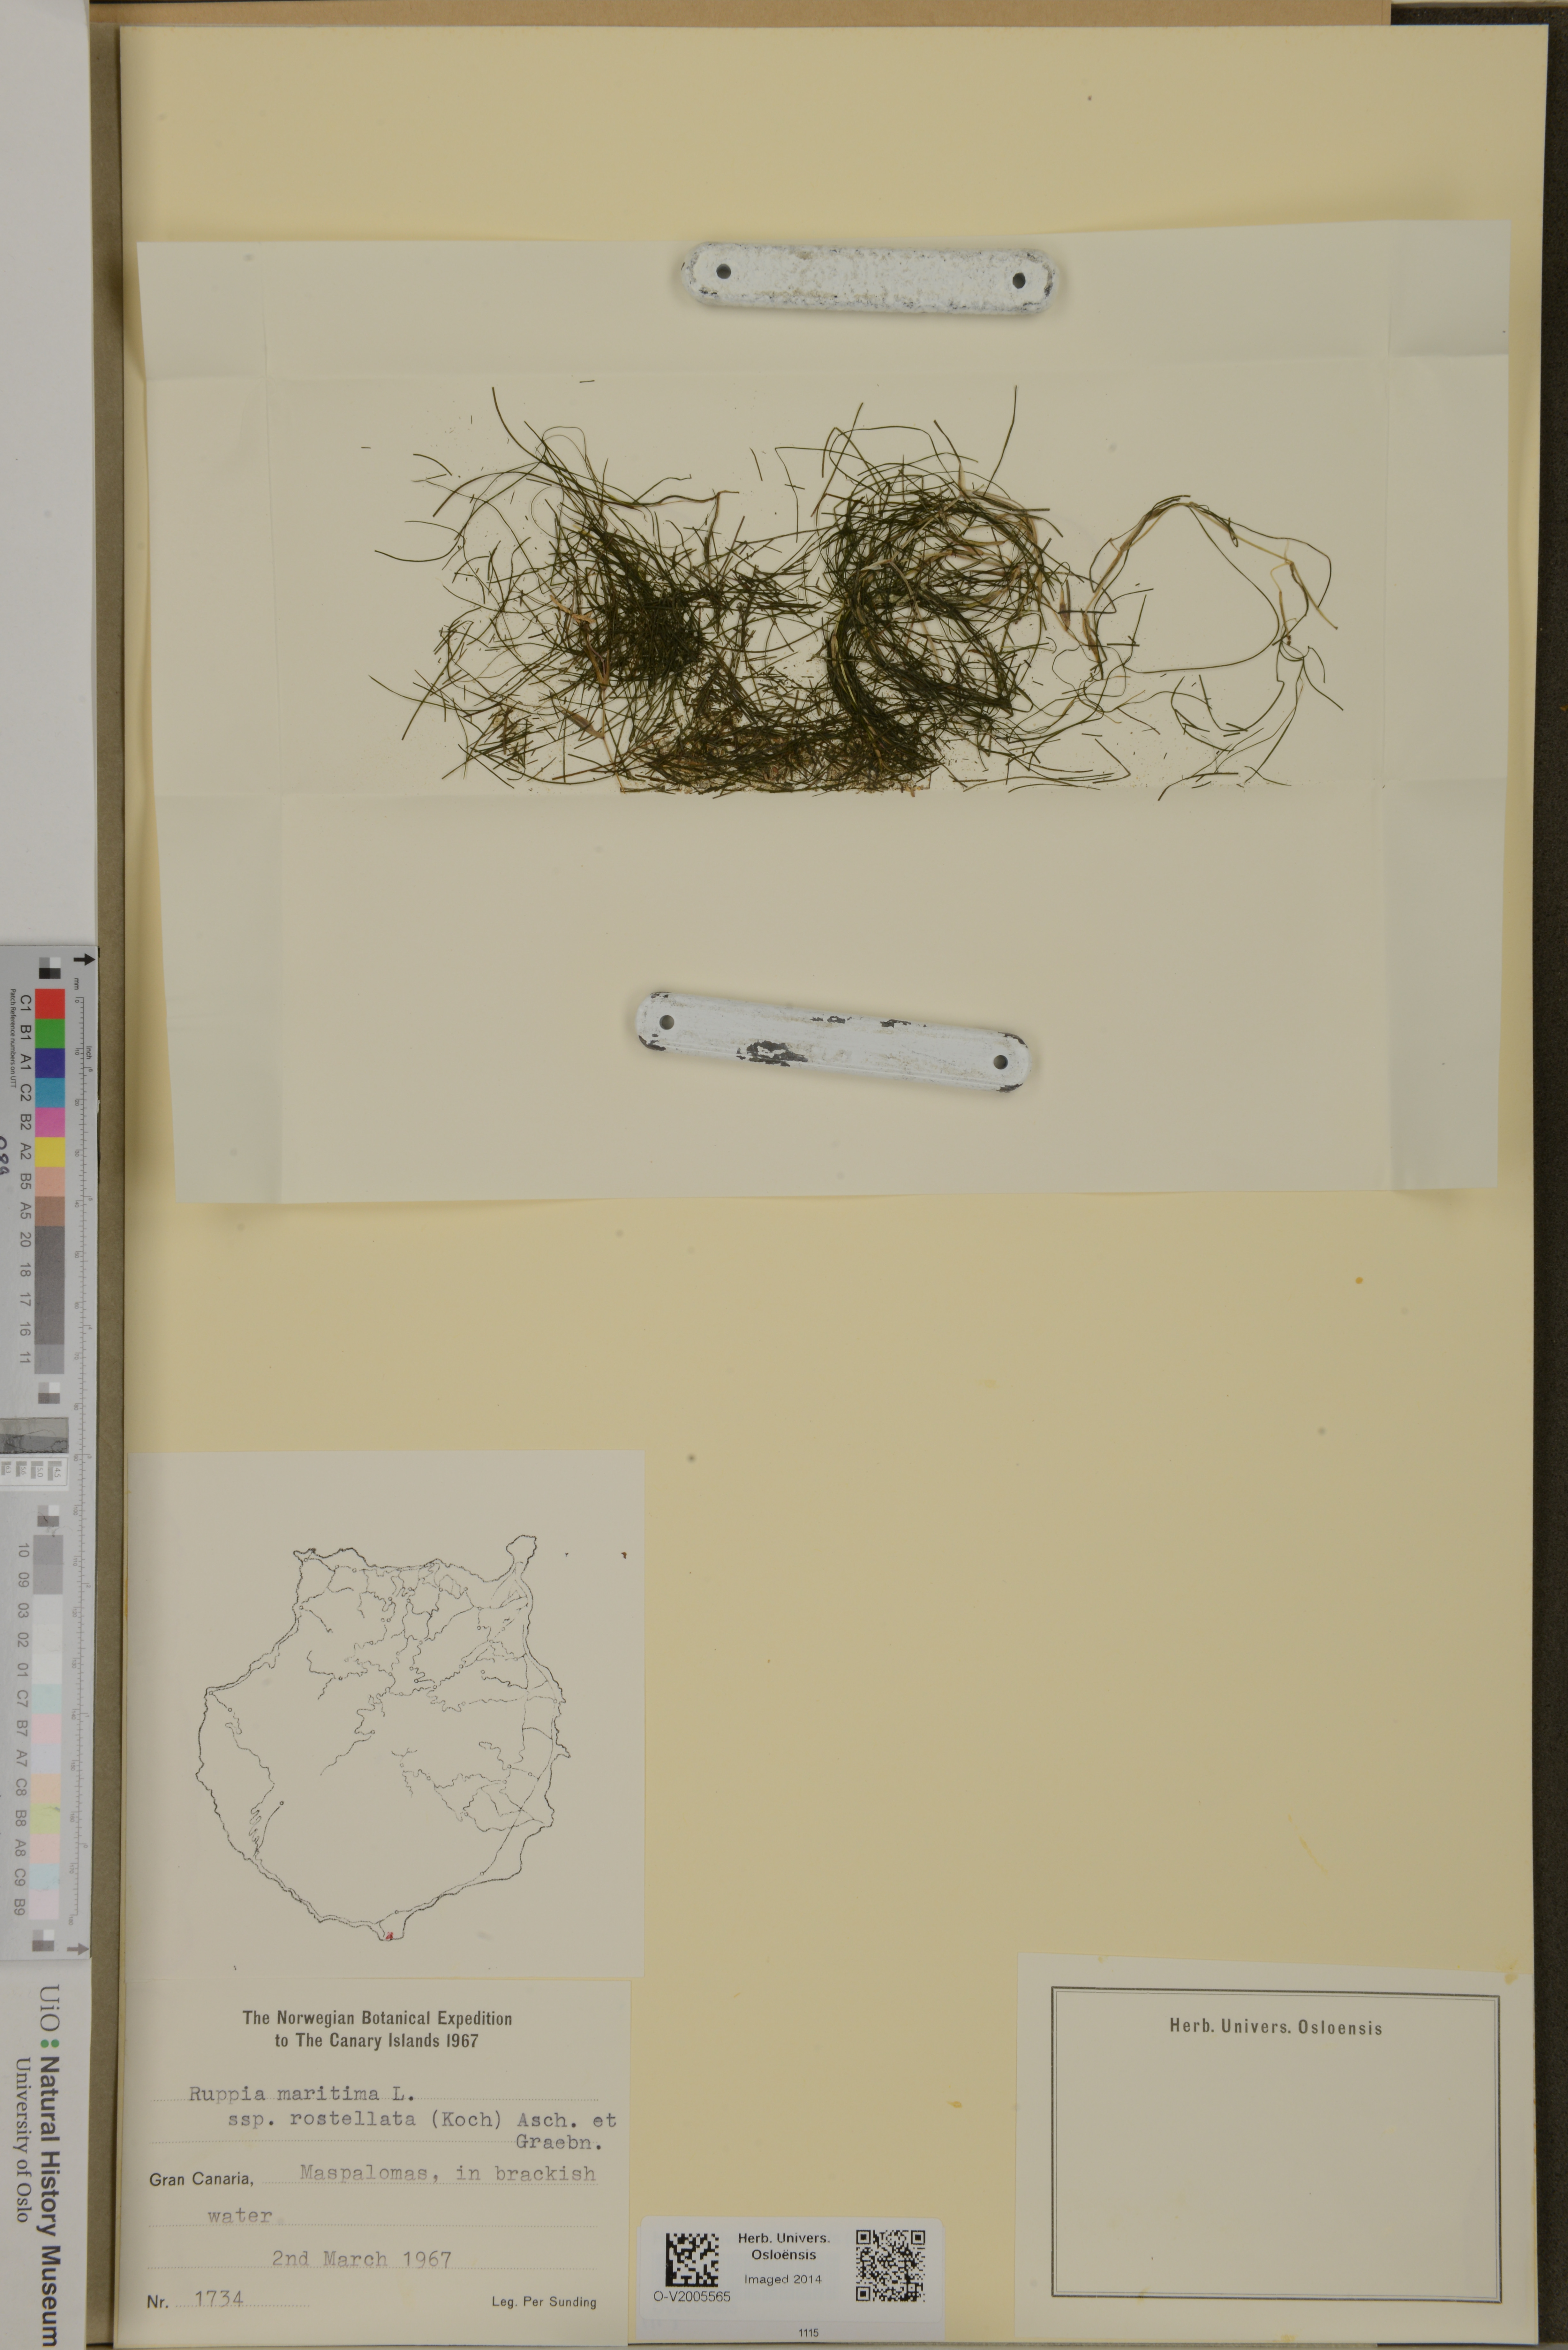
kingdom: Plantae
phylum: Tracheophyta
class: Liliopsida
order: Alismatales
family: Ruppiaceae
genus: Ruppia
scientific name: Ruppia maritima
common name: Beaked tasselweed
